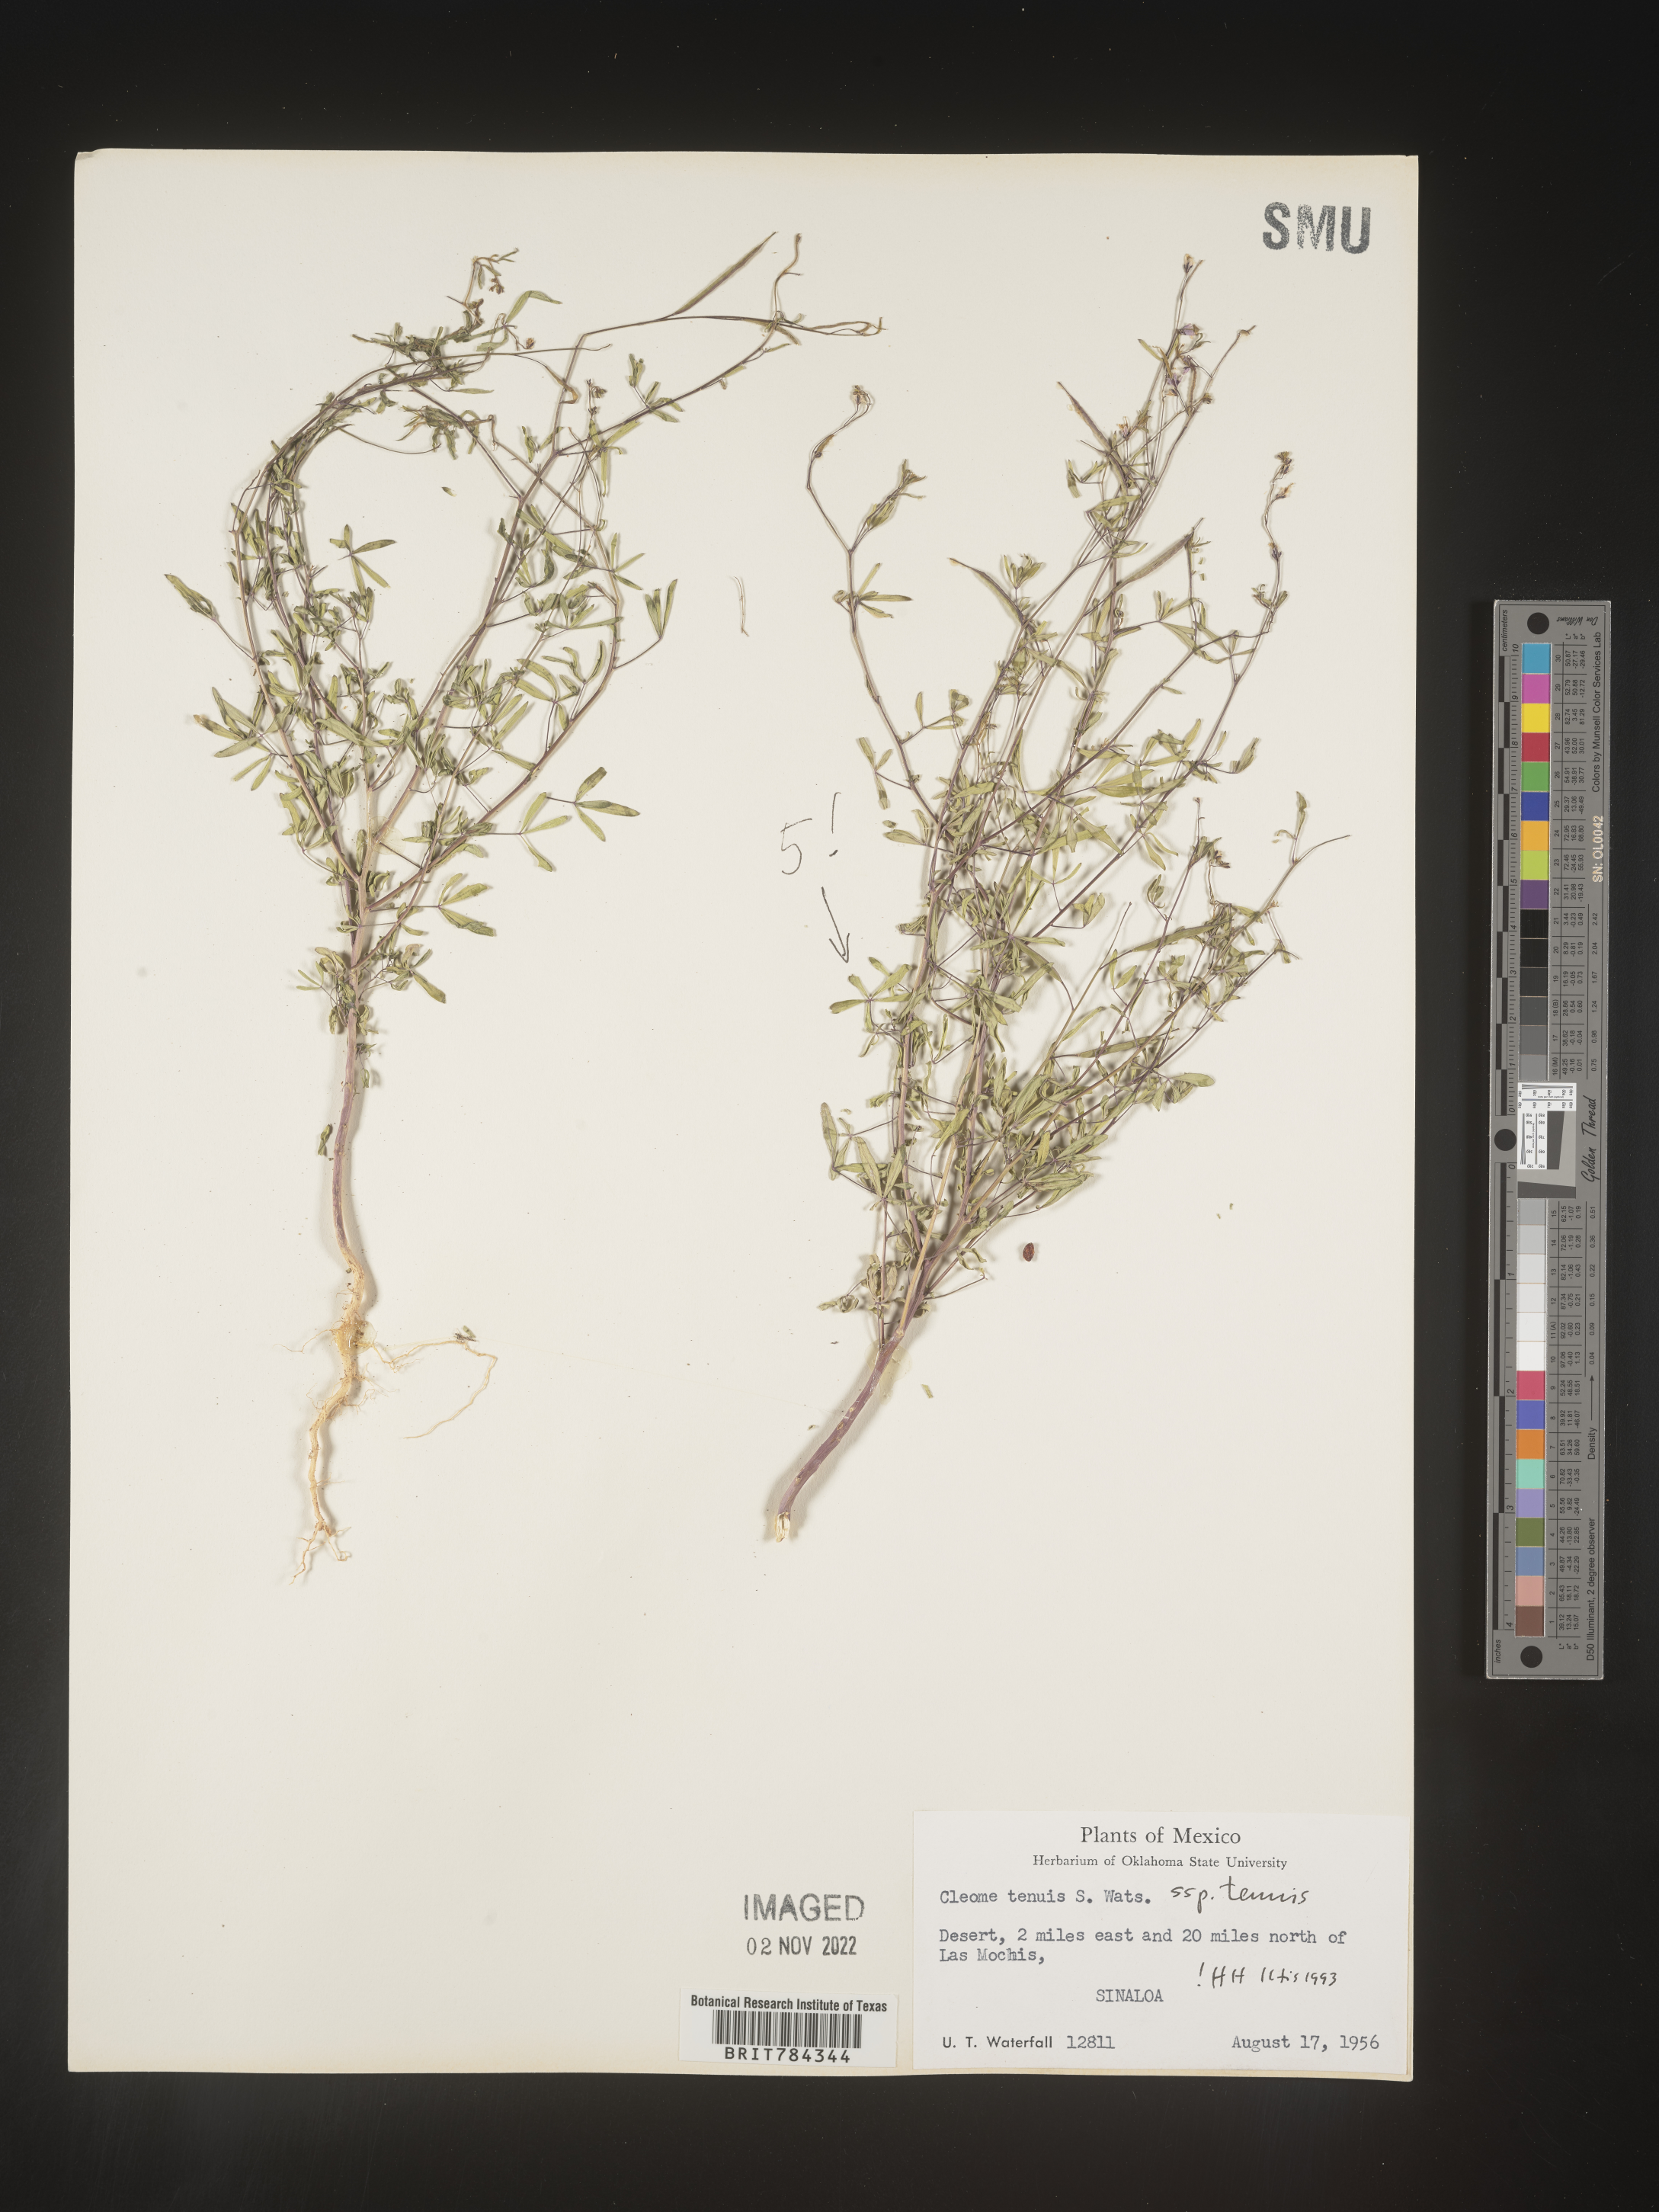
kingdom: Plantae
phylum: Tracheophyta
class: Magnoliopsida
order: Brassicales
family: Cleomaceae
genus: Cleome
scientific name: Cleome
